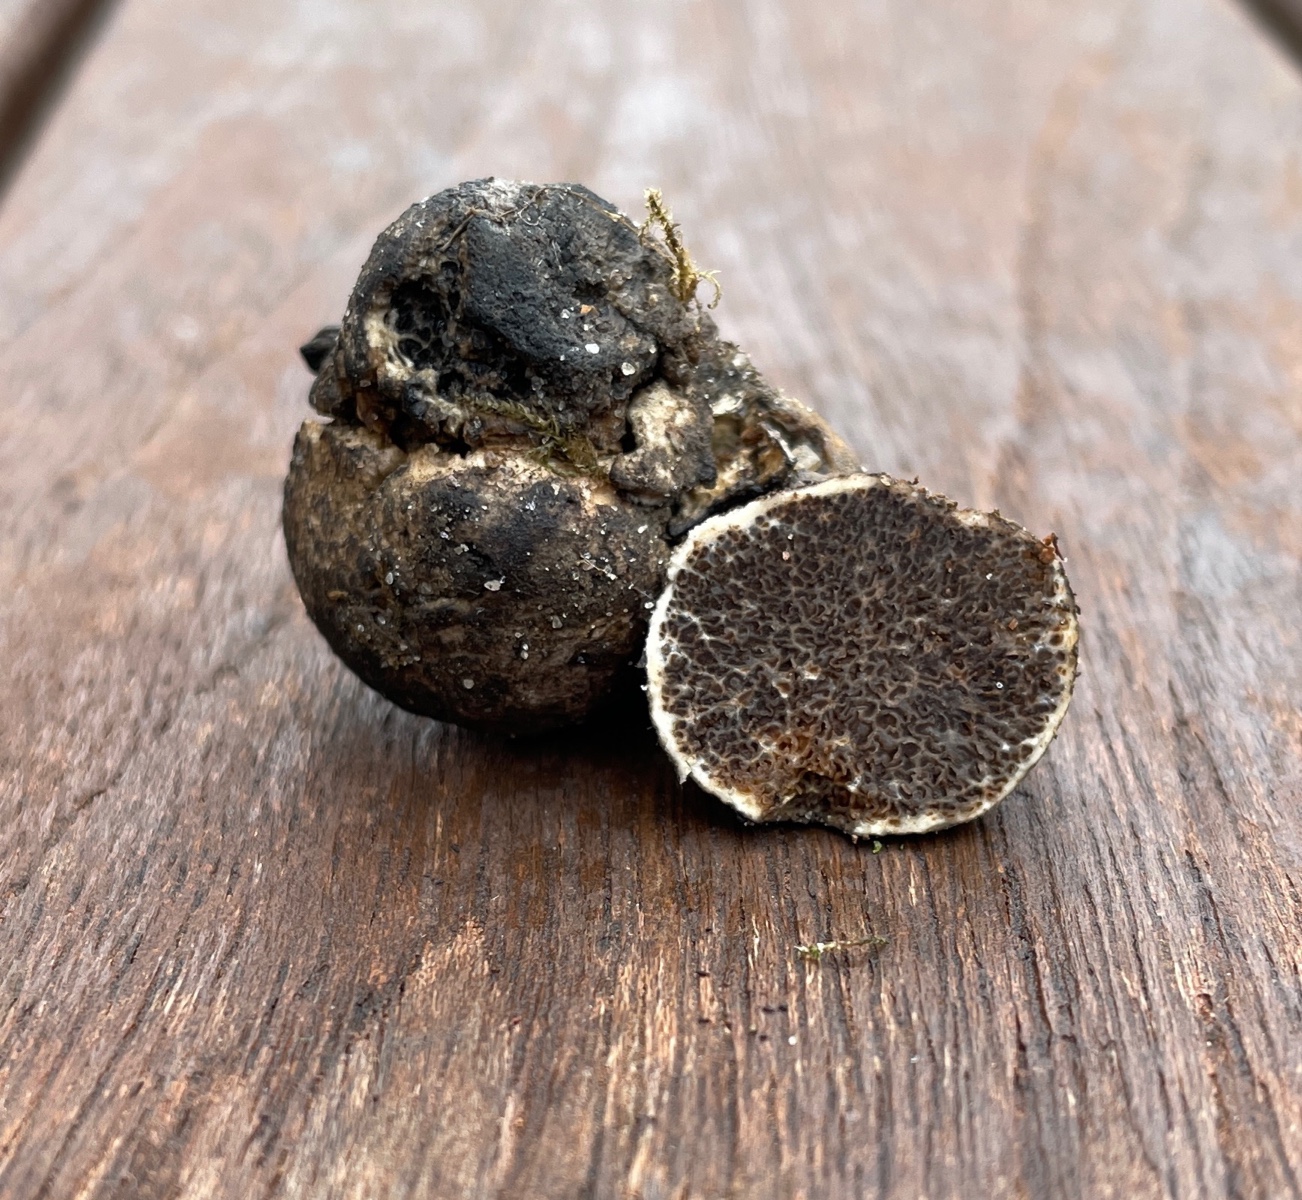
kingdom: Fungi
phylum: Basidiomycota
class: Agaricomycetes
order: Boletales
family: Boletaceae
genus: Octaviania
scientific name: Octaviania
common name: løvtrøffel
